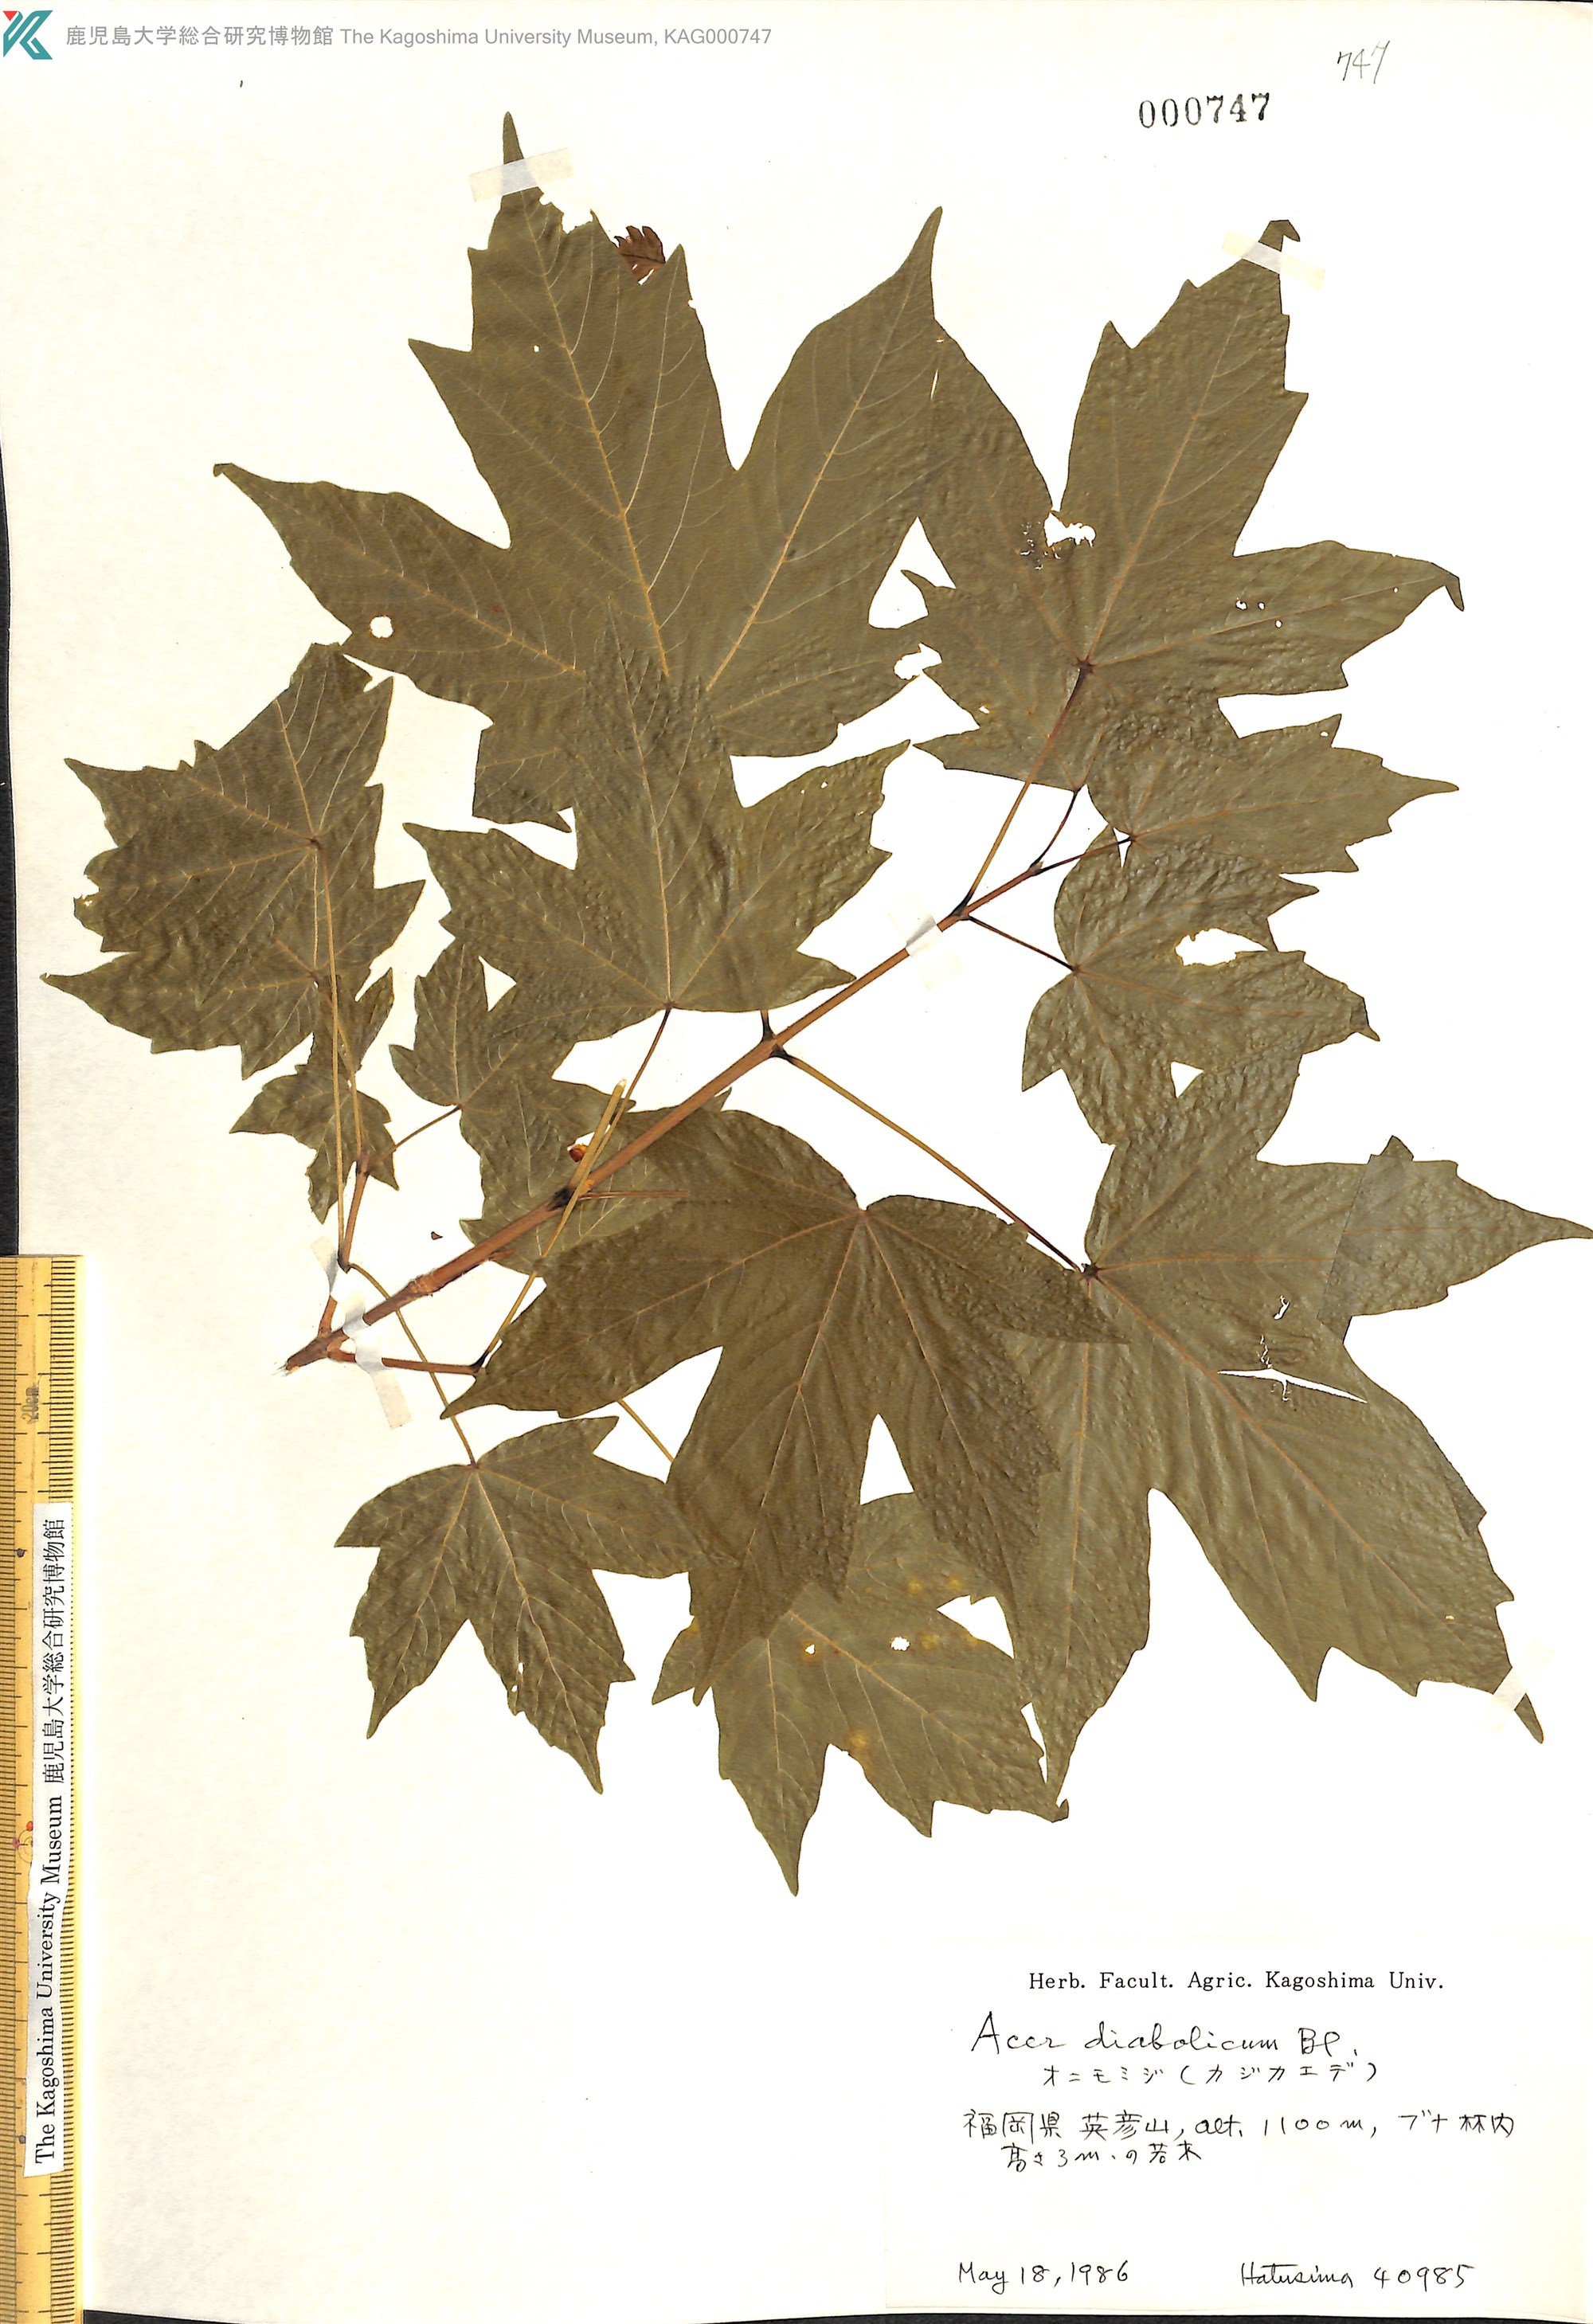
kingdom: Plantae
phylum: Tracheophyta
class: Magnoliopsida
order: Sapindales
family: Sapindaceae
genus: Acer
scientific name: Acer diabolicum
